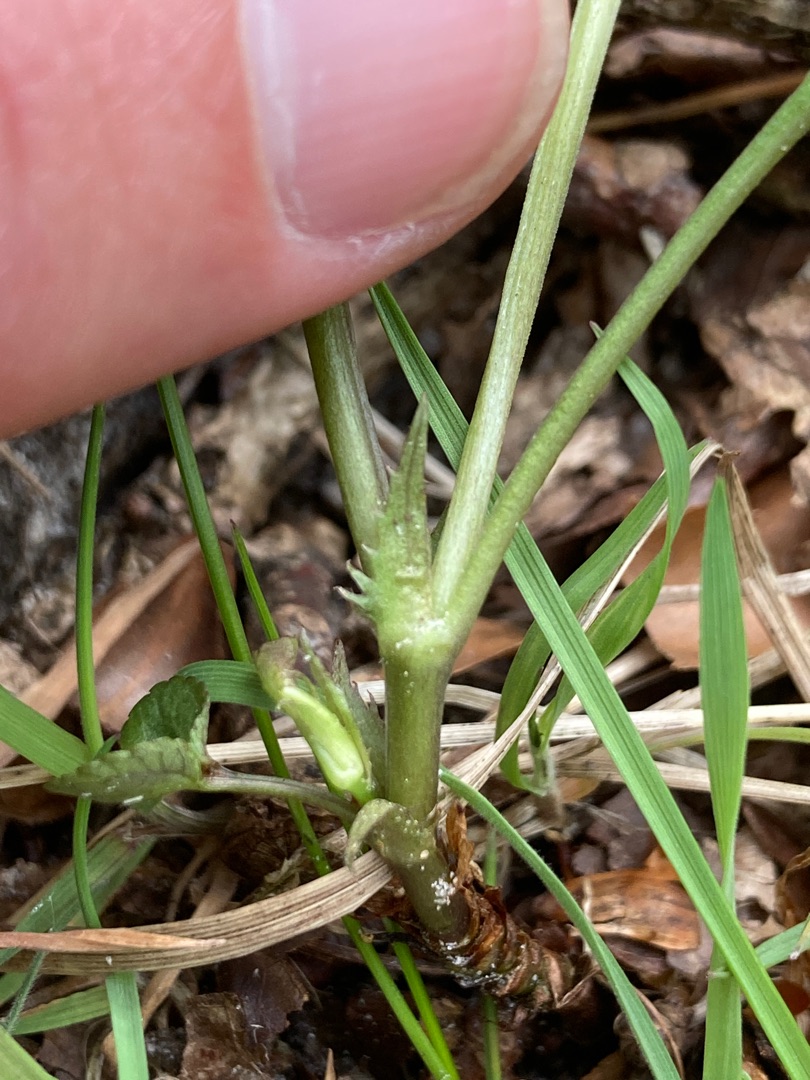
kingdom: Plantae
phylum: Tracheophyta
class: Magnoliopsida
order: Malpighiales
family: Violaceae
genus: Viola
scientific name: Viola riviniana
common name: Krat-viol
